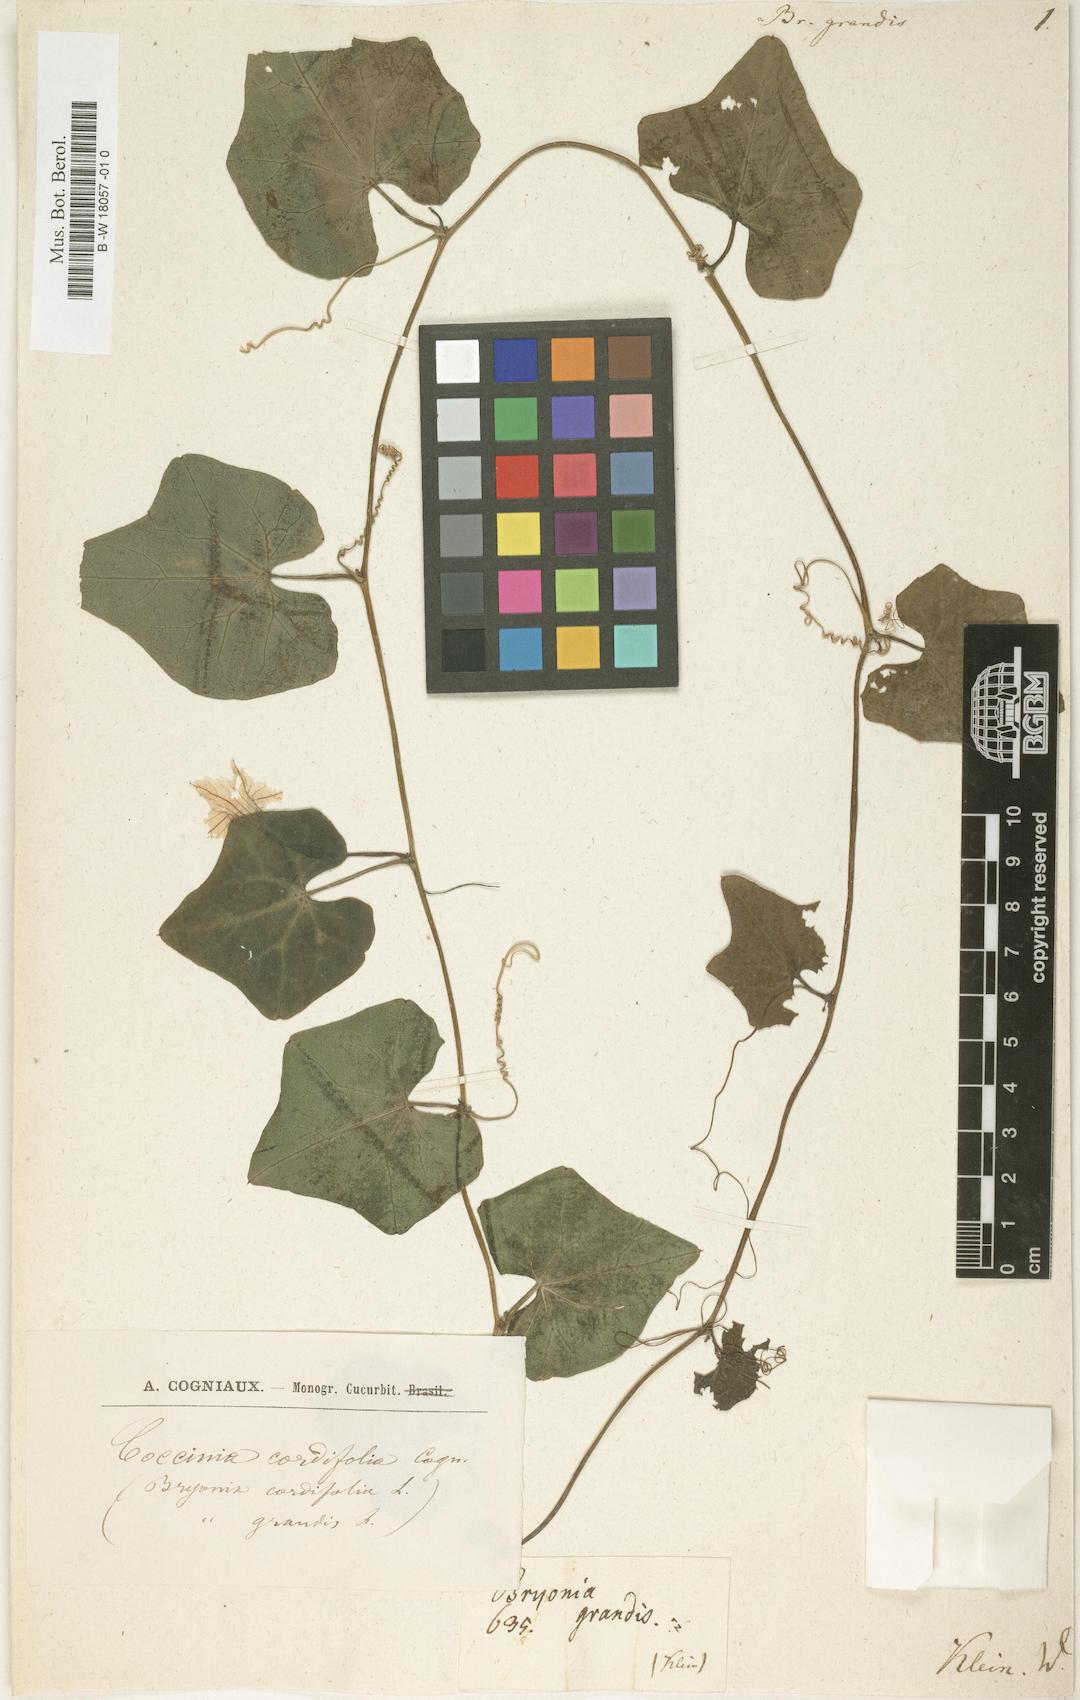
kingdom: Plantae
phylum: Tracheophyta
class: Magnoliopsida
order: Cucurbitales
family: Cucurbitaceae
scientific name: Cucurbitaceae
